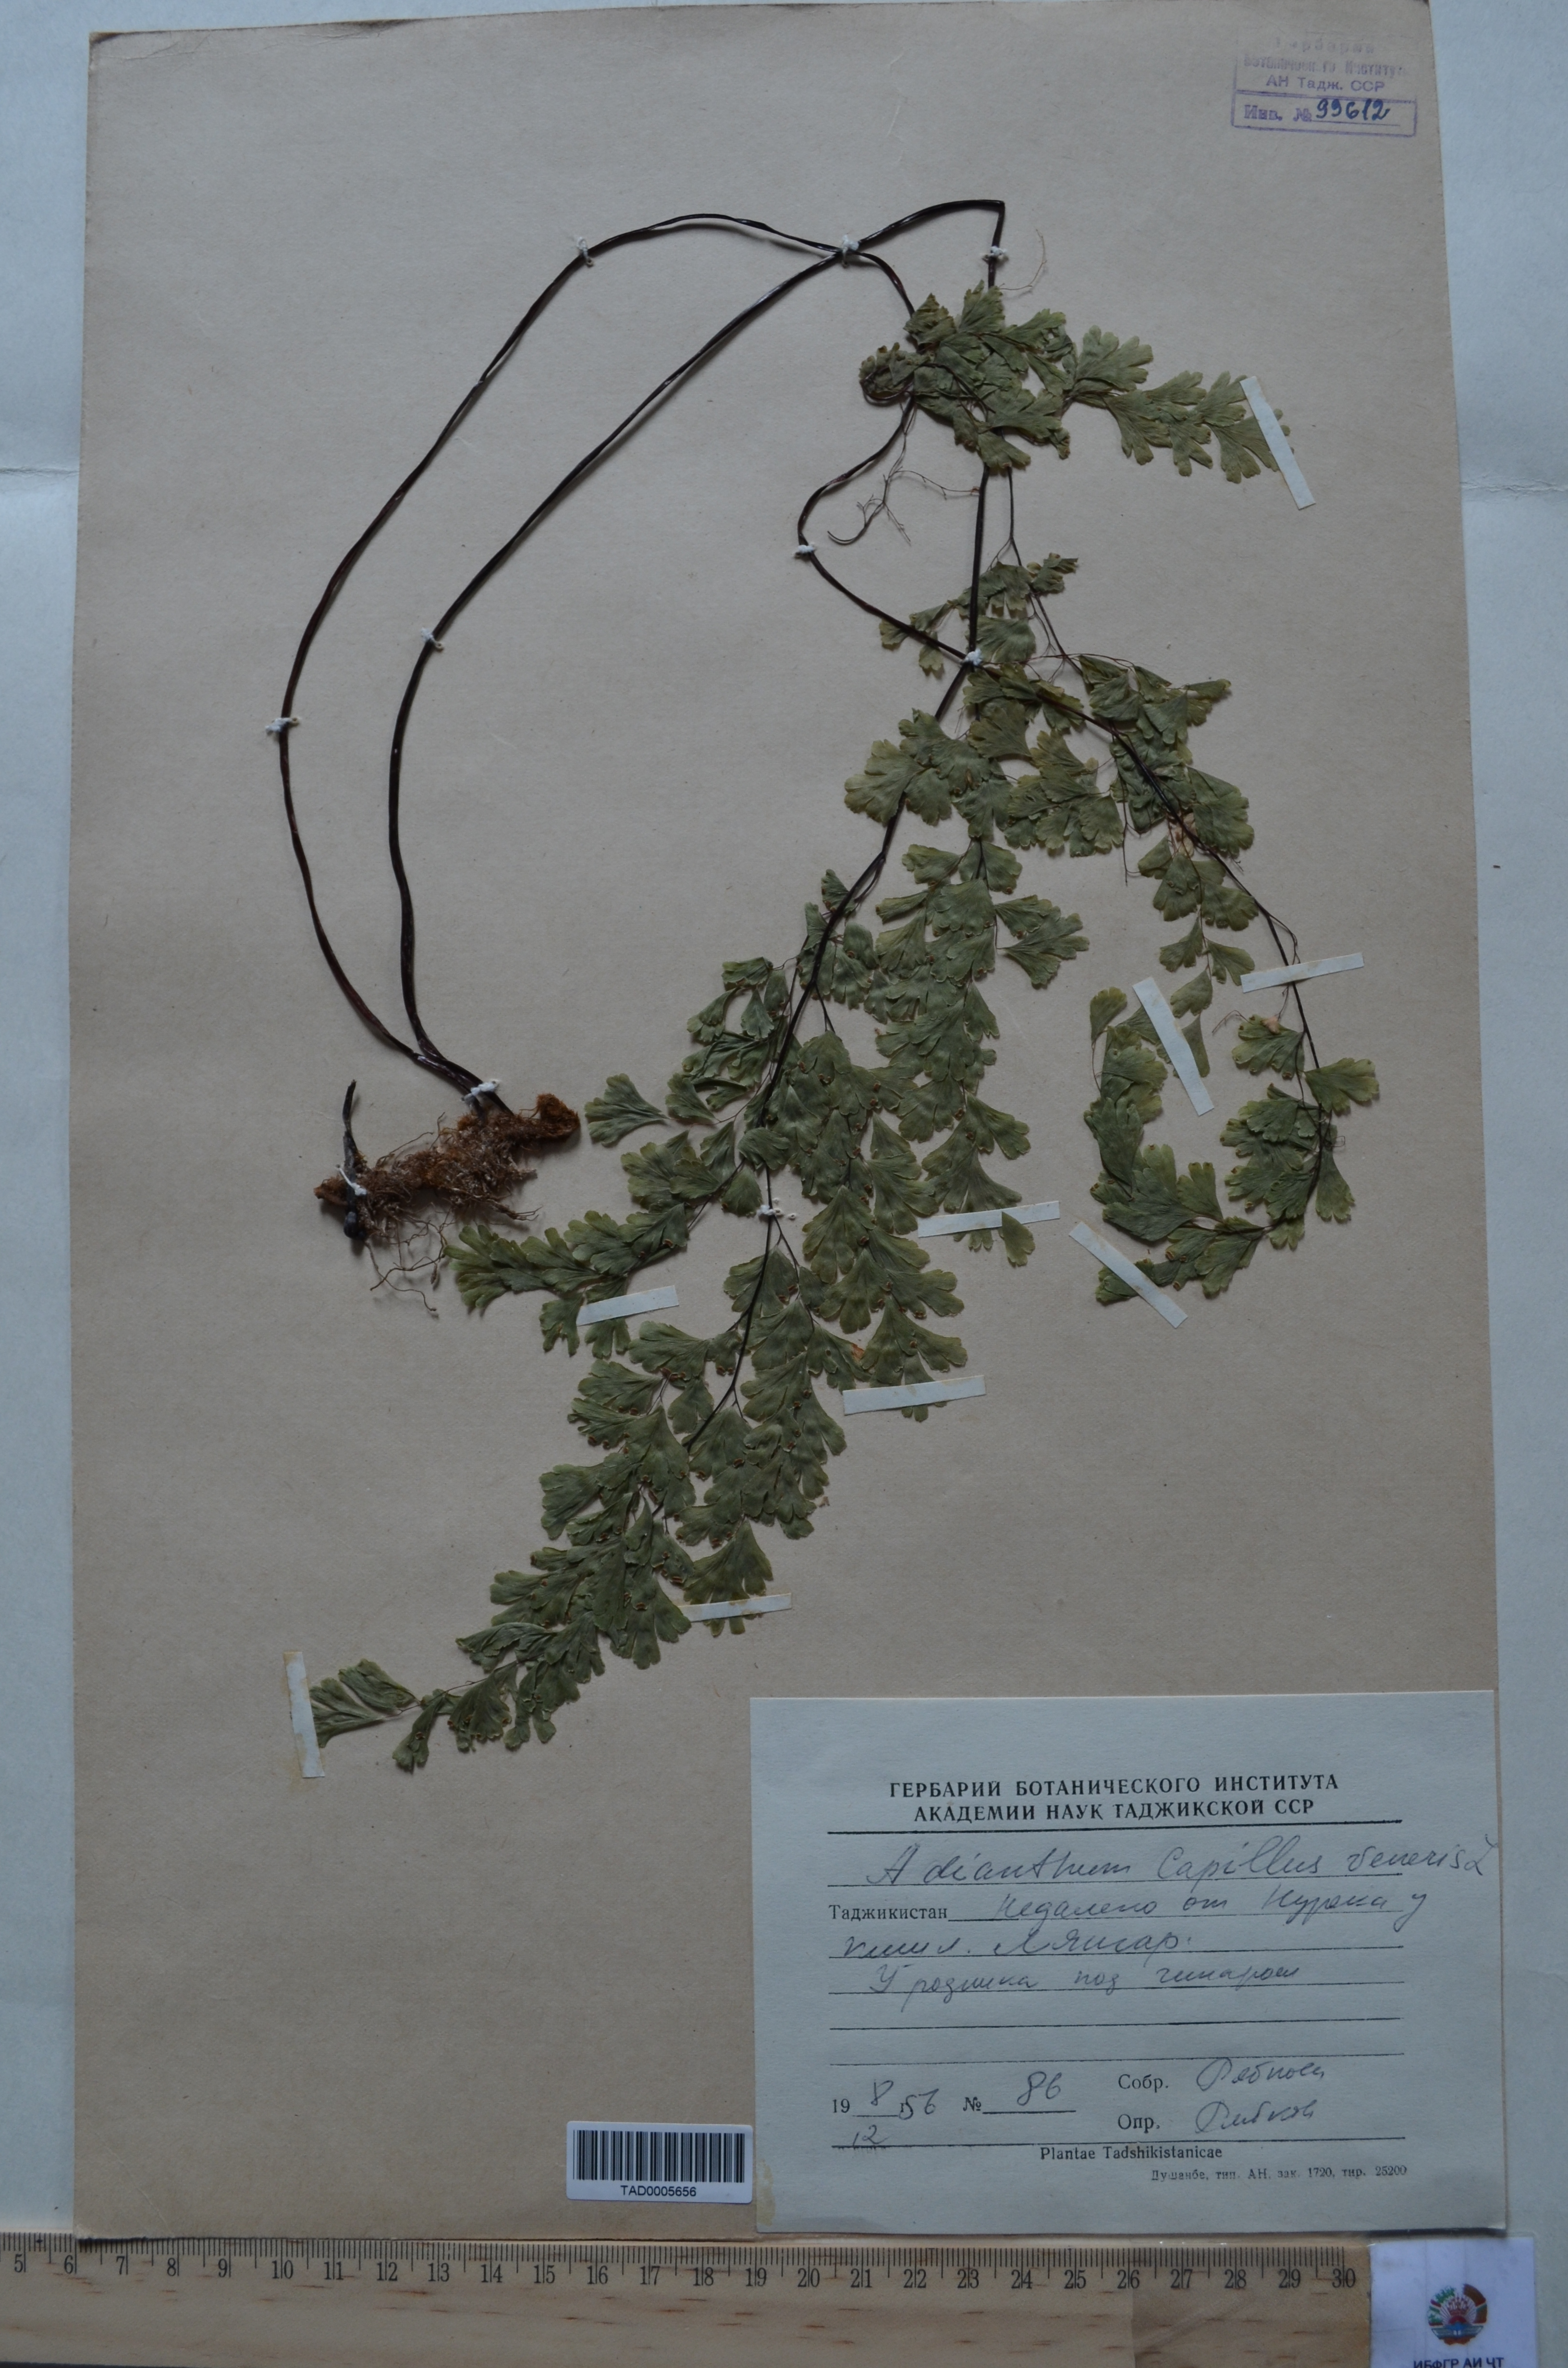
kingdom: Plantae
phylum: Tracheophyta
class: Polypodiopsida
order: Polypodiales
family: Pteridaceae
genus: Adiantum
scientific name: Adiantum capillus-veneris
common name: Maidenhair fern
